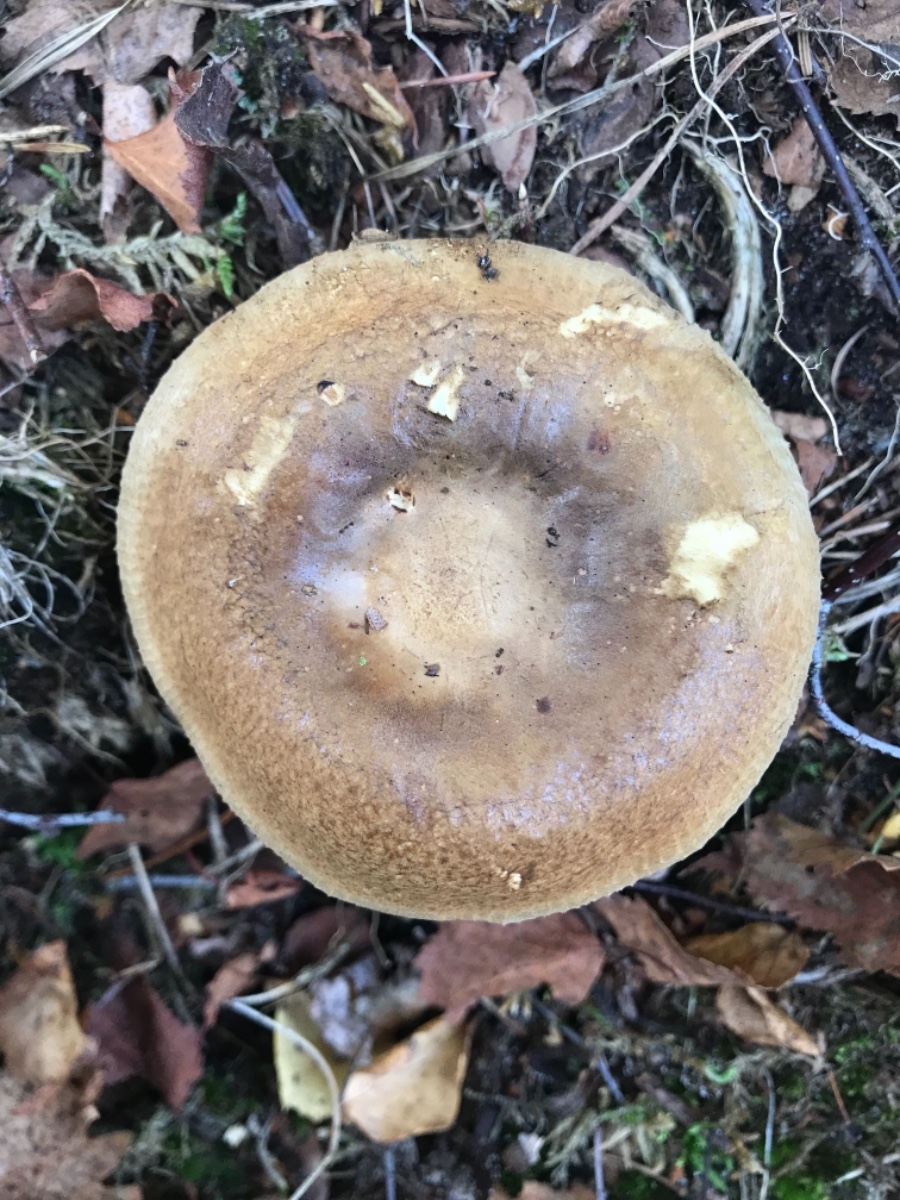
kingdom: Fungi
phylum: Basidiomycota
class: Agaricomycetes
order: Boletales
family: Paxillaceae
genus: Paxillus
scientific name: Paxillus involutus
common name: almindelig netbladhat
